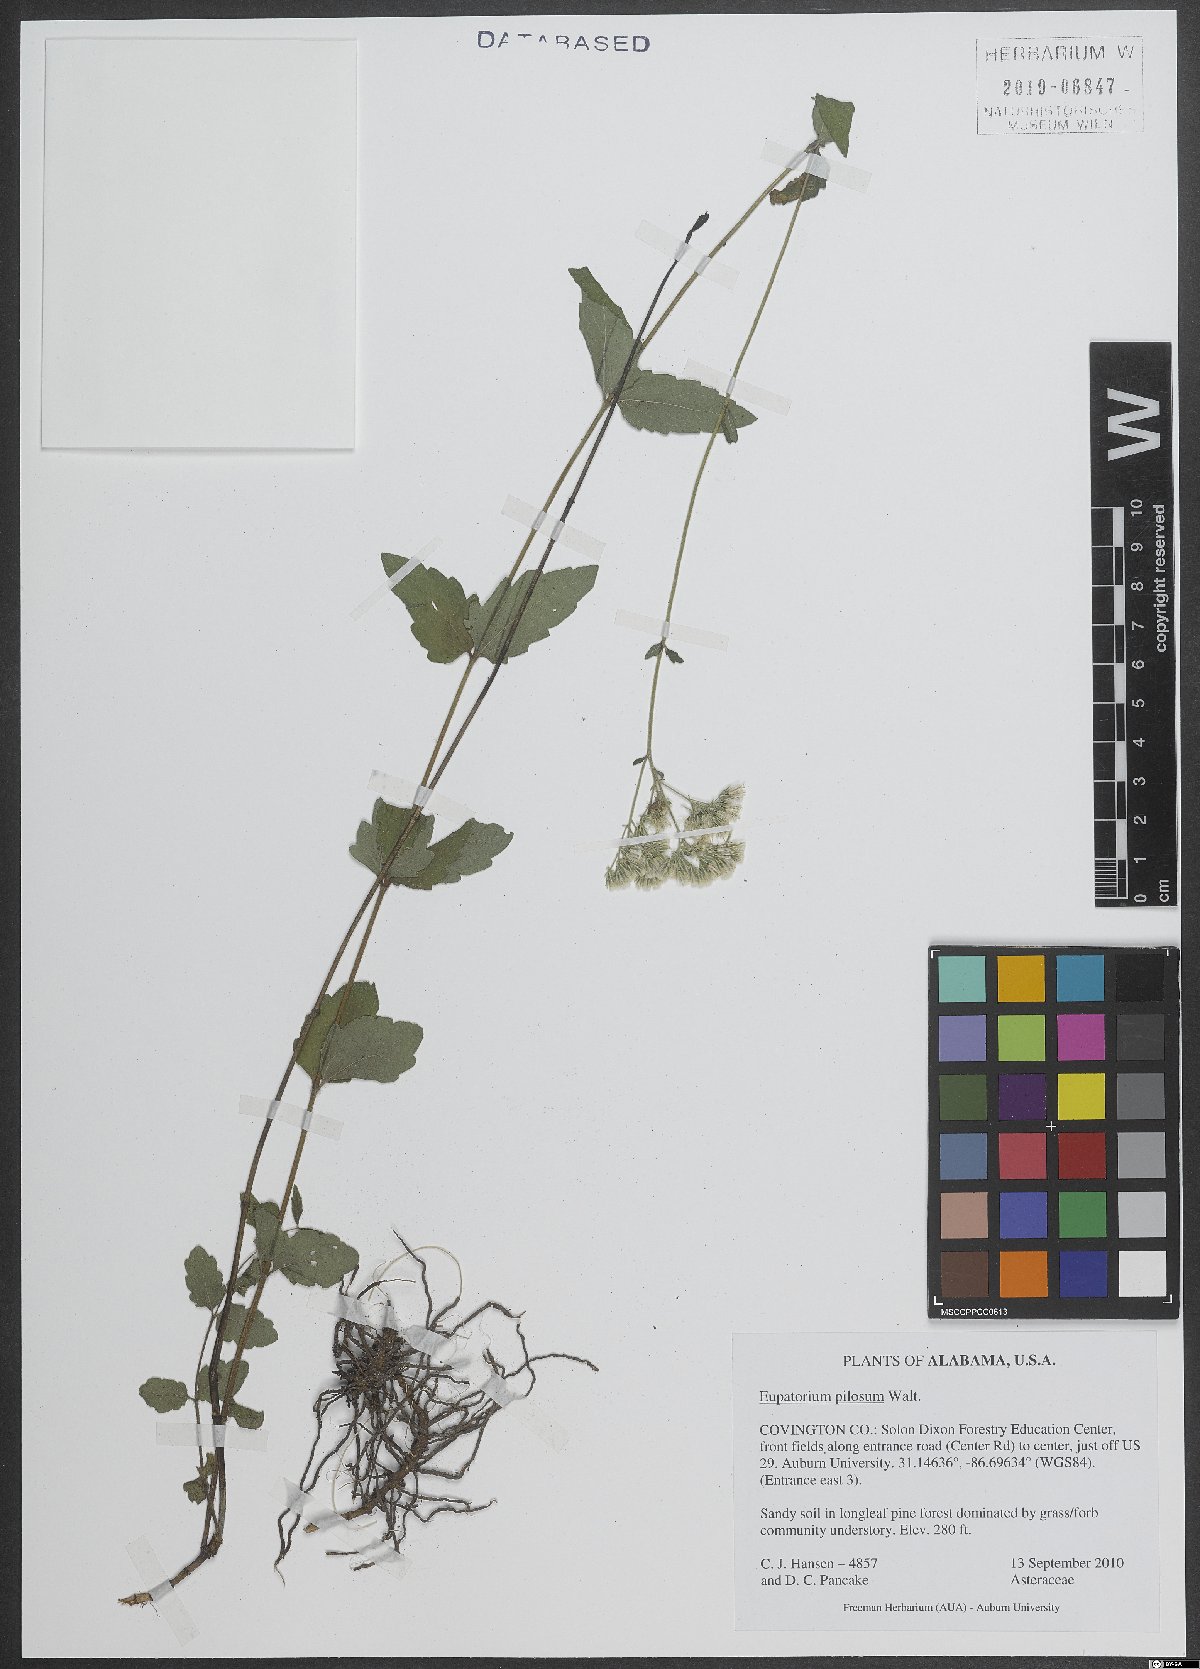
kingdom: Plantae
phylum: Tracheophyta
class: Magnoliopsida
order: Asterales
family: Asteraceae
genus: Eupatorium
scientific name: Eupatorium pilosum
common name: Rough boneset
